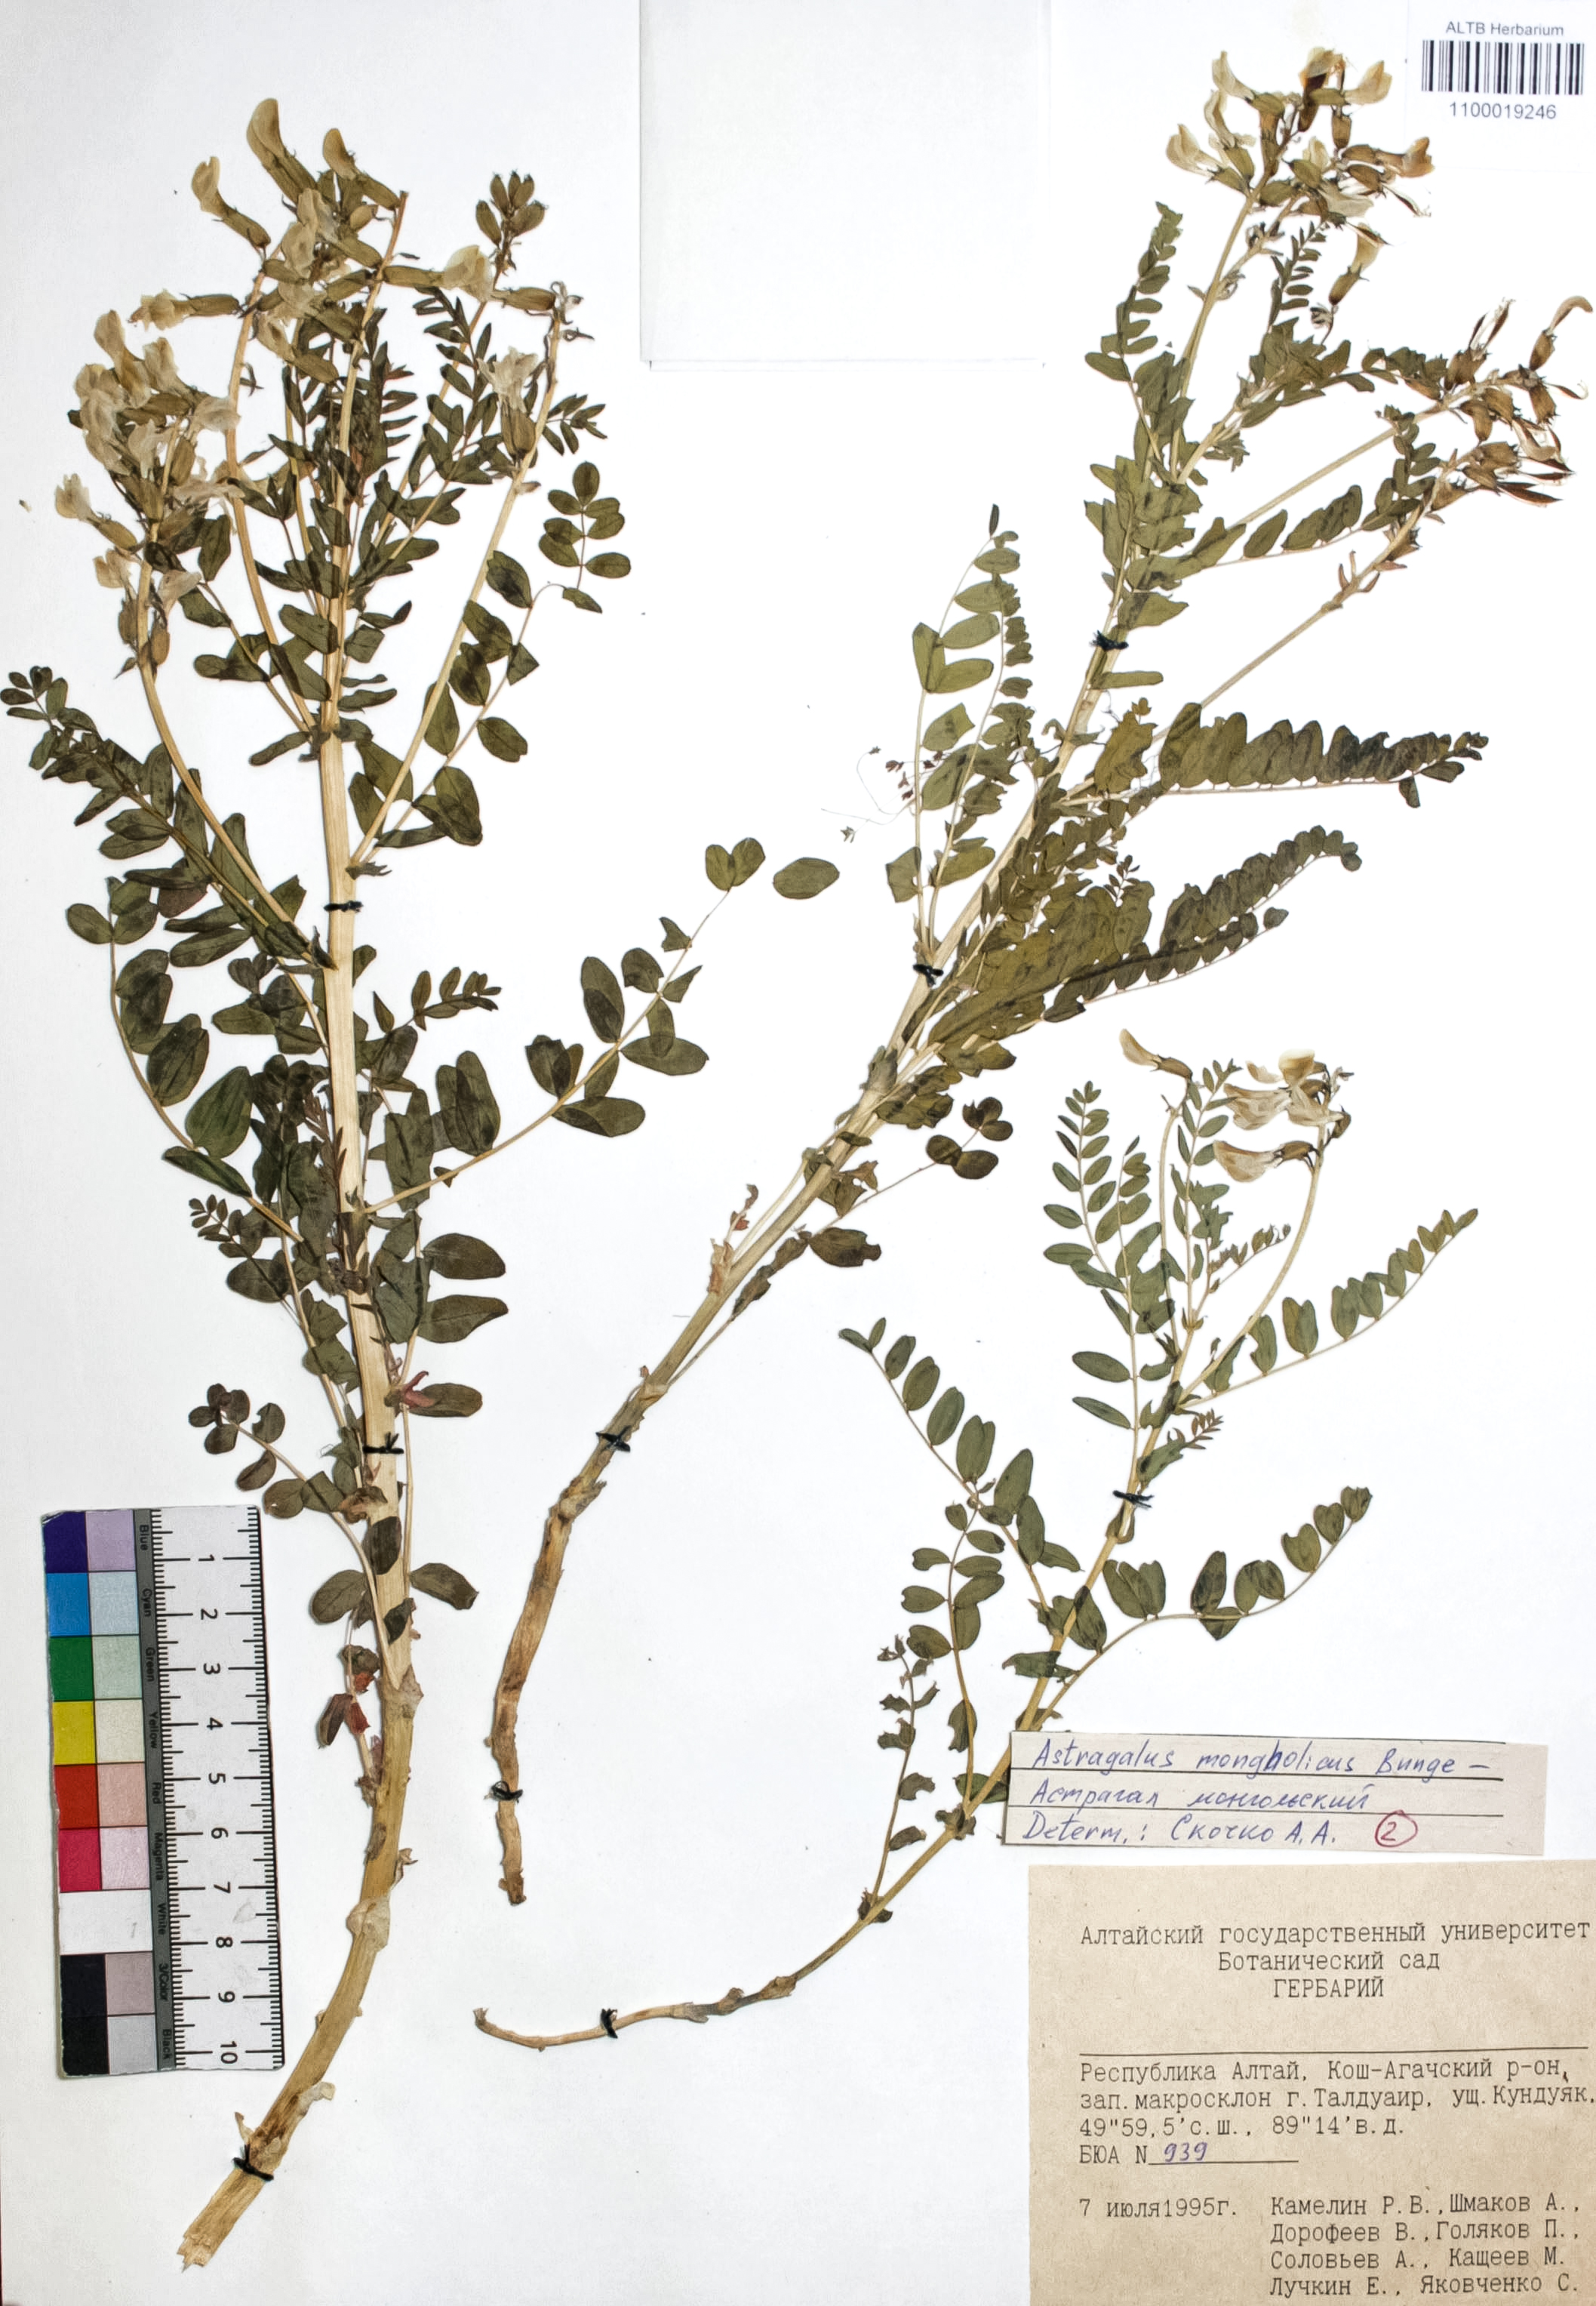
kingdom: Plantae
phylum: Tracheophyta
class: Magnoliopsida
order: Fabales
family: Fabaceae
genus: Astragalus
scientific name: Astragalus mongolicus
